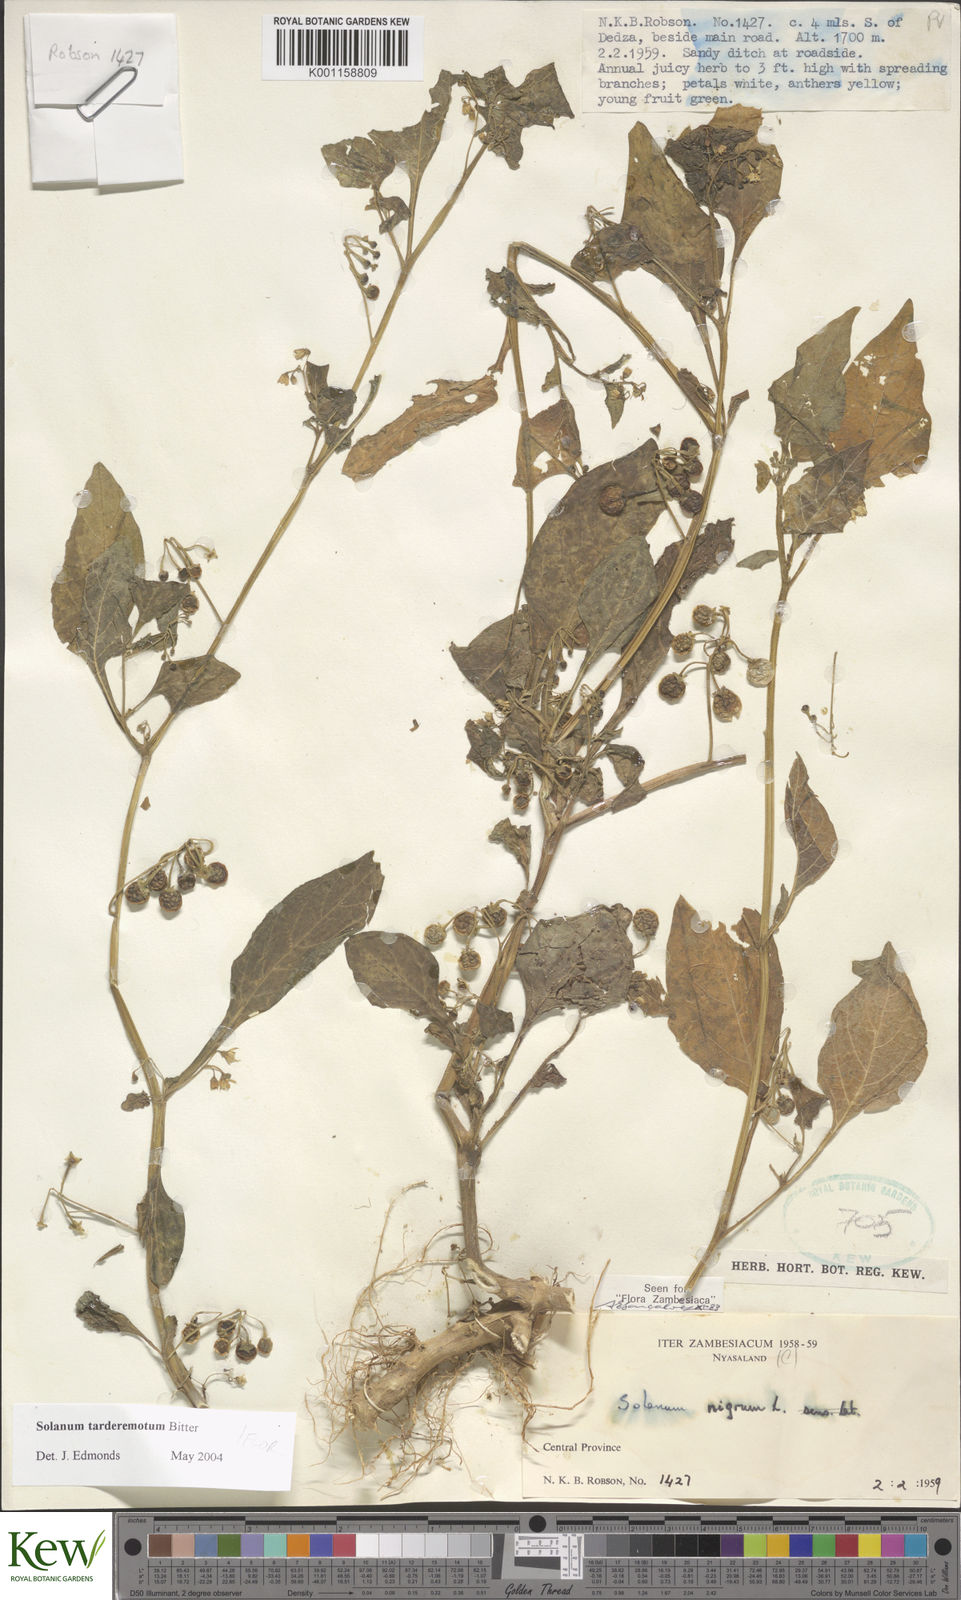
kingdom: Plantae
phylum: Tracheophyta
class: Magnoliopsida
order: Solanales
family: Solanaceae
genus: Solanum
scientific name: Solanum tarderemotum
